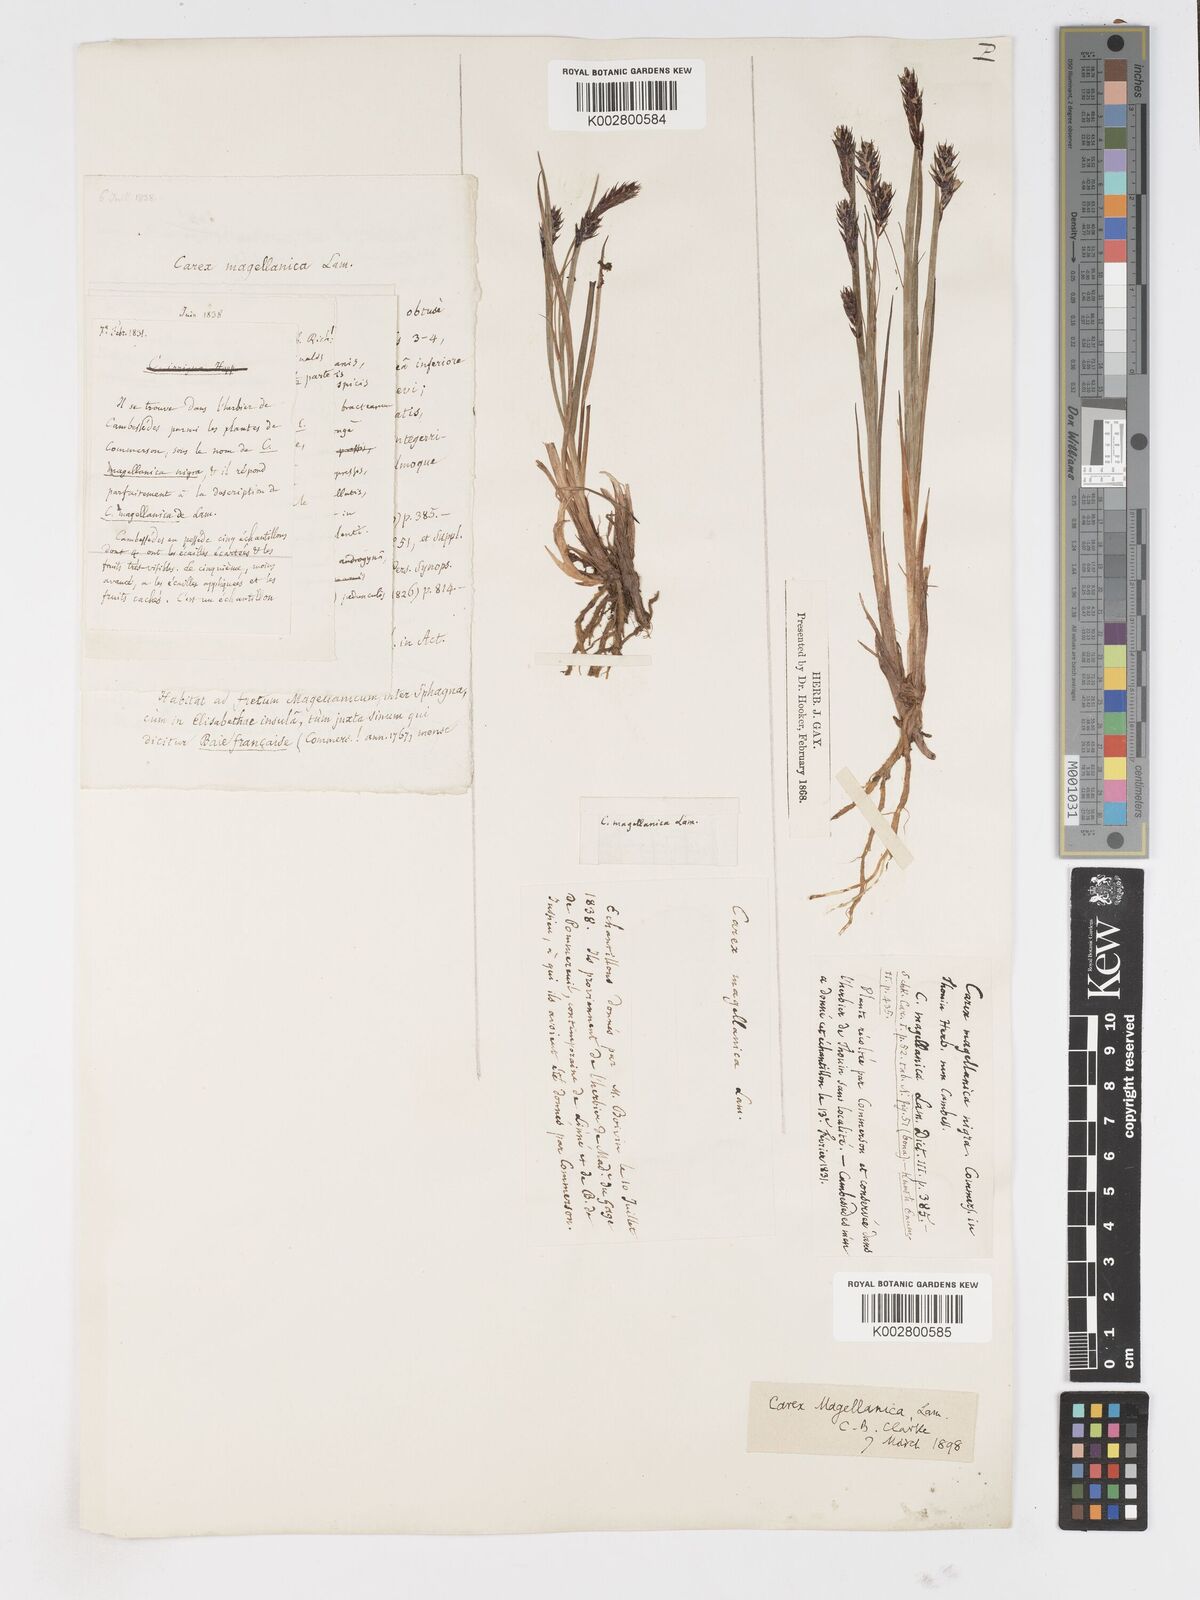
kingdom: Plantae
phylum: Tracheophyta
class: Liliopsida
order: Poales
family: Cyperaceae
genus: Carex
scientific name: Carex magellanica
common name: Bog sedge
